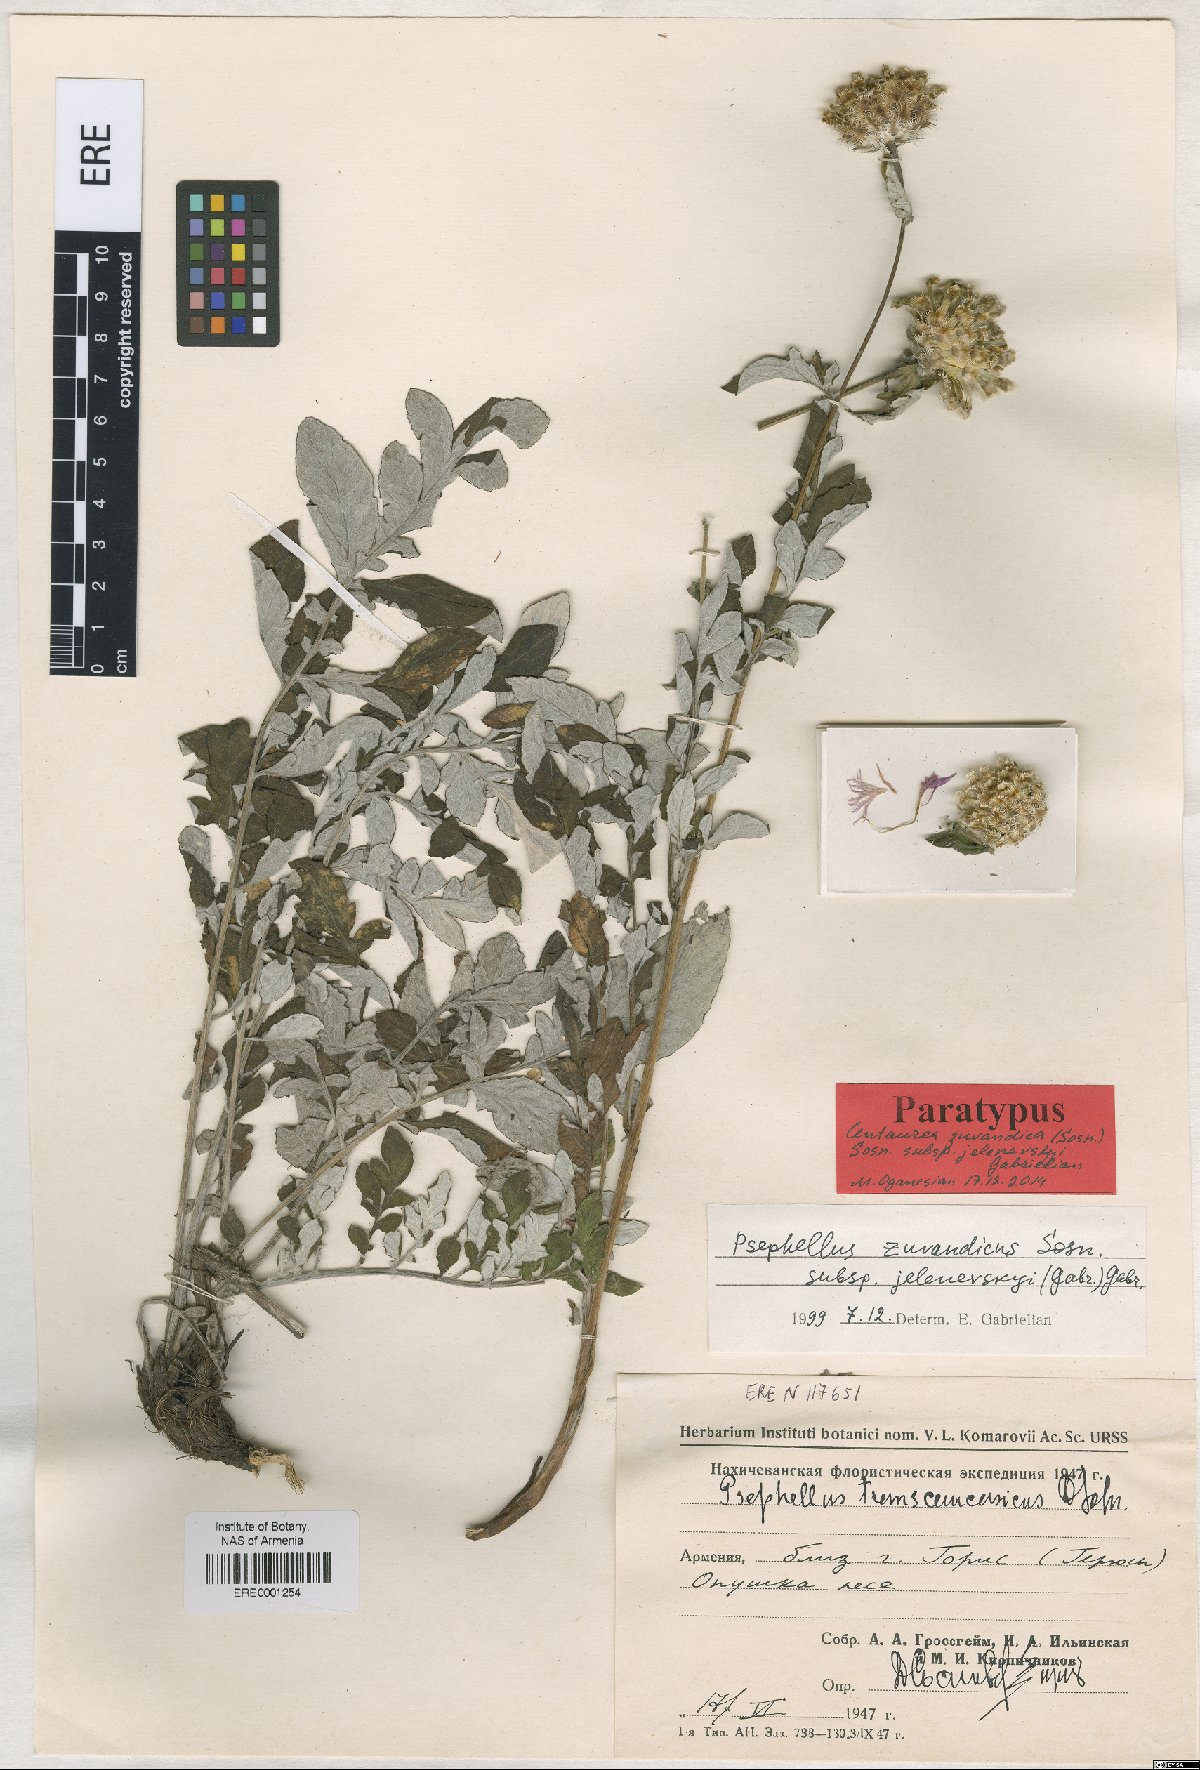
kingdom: Plantae
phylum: Tracheophyta
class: Magnoliopsida
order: Asterales
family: Asteraceae
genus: Psephellus
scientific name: Psephellus zuvandicus
